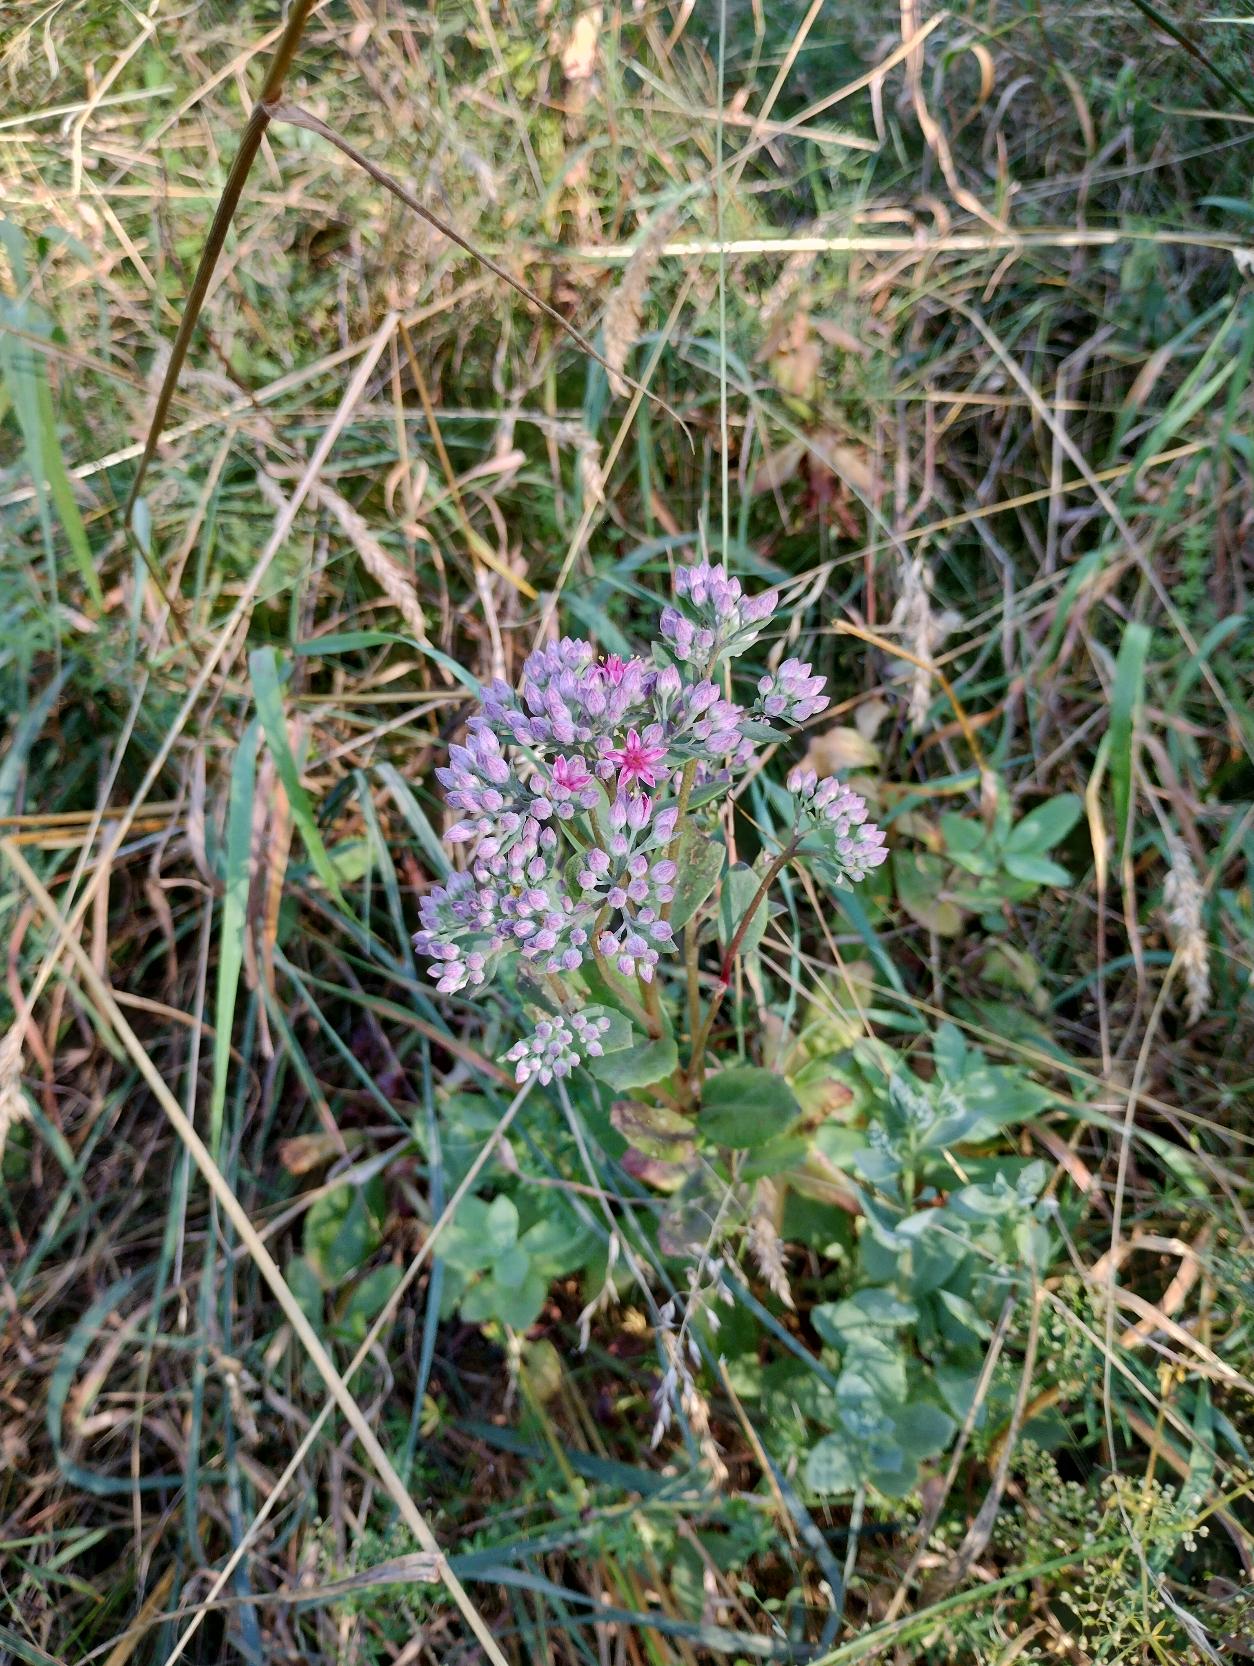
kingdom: Plantae
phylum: Tracheophyta
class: Magnoliopsida
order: Saxifragales
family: Crassulaceae
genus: Hylotelephium
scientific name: Hylotelephium telephium
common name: Rød sankthansurt
